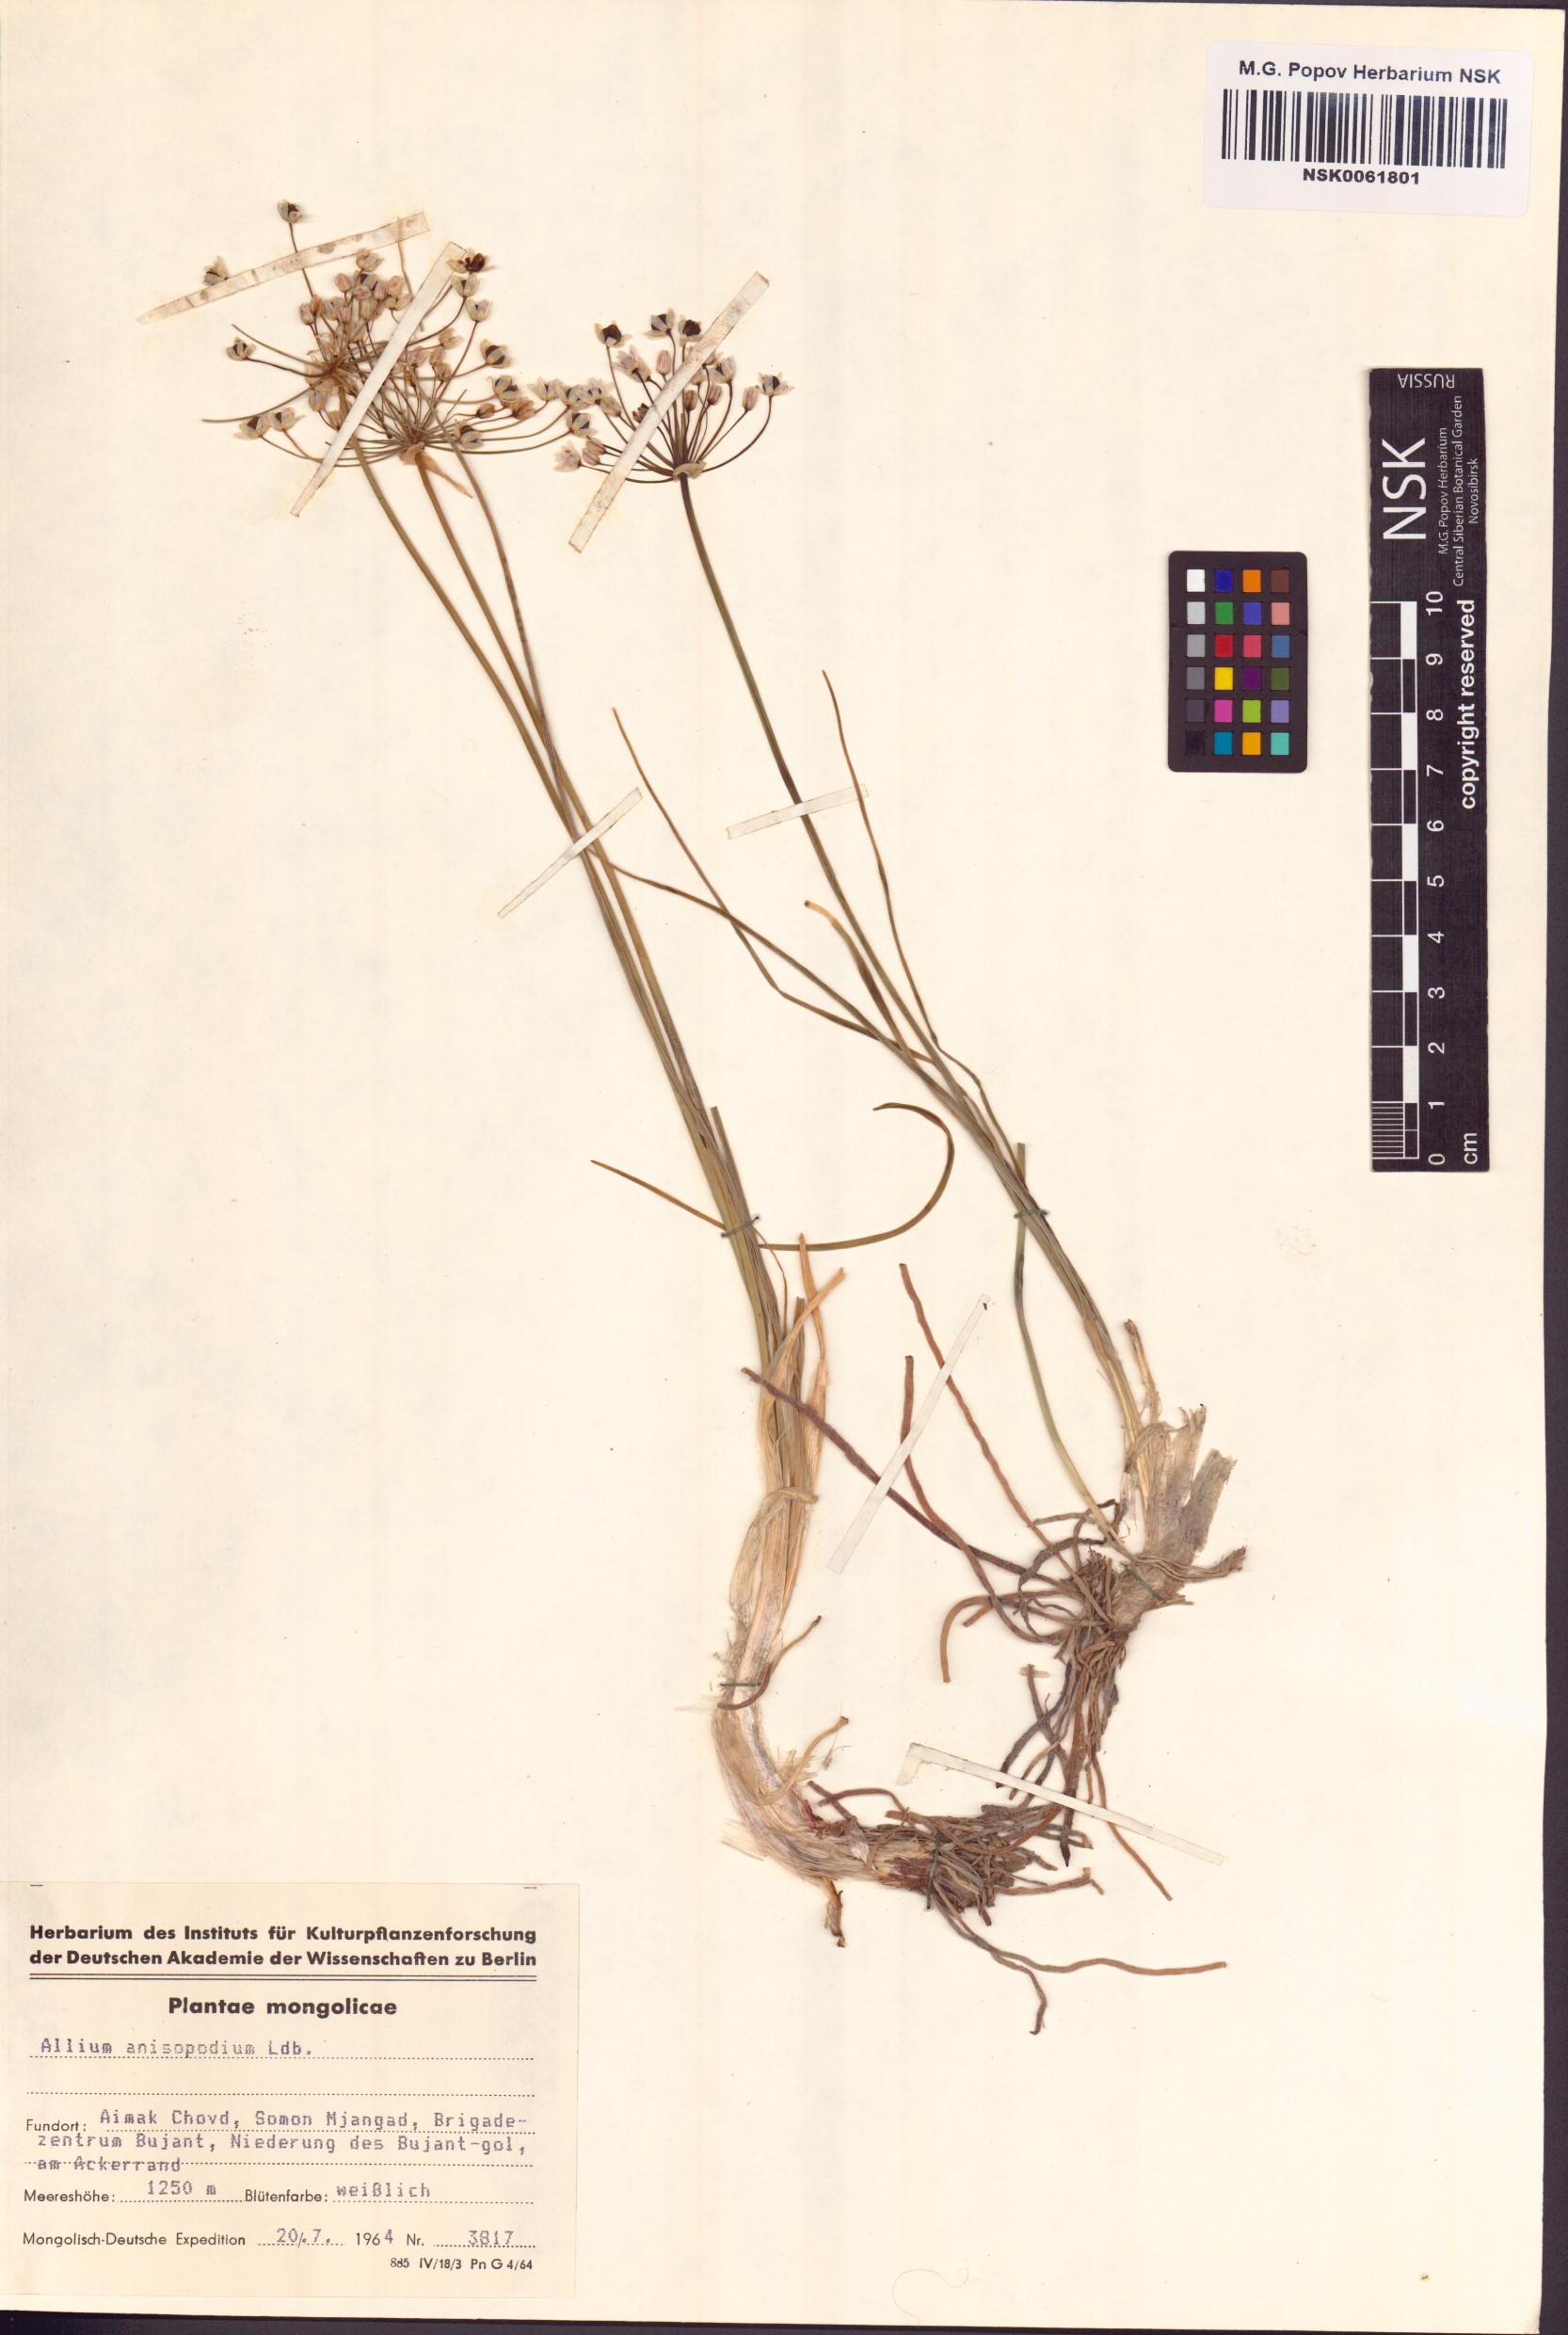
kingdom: Plantae
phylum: Tracheophyta
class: Liliopsida
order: Asparagales
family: Amaryllidaceae
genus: Allium
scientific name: Allium anisopodium
